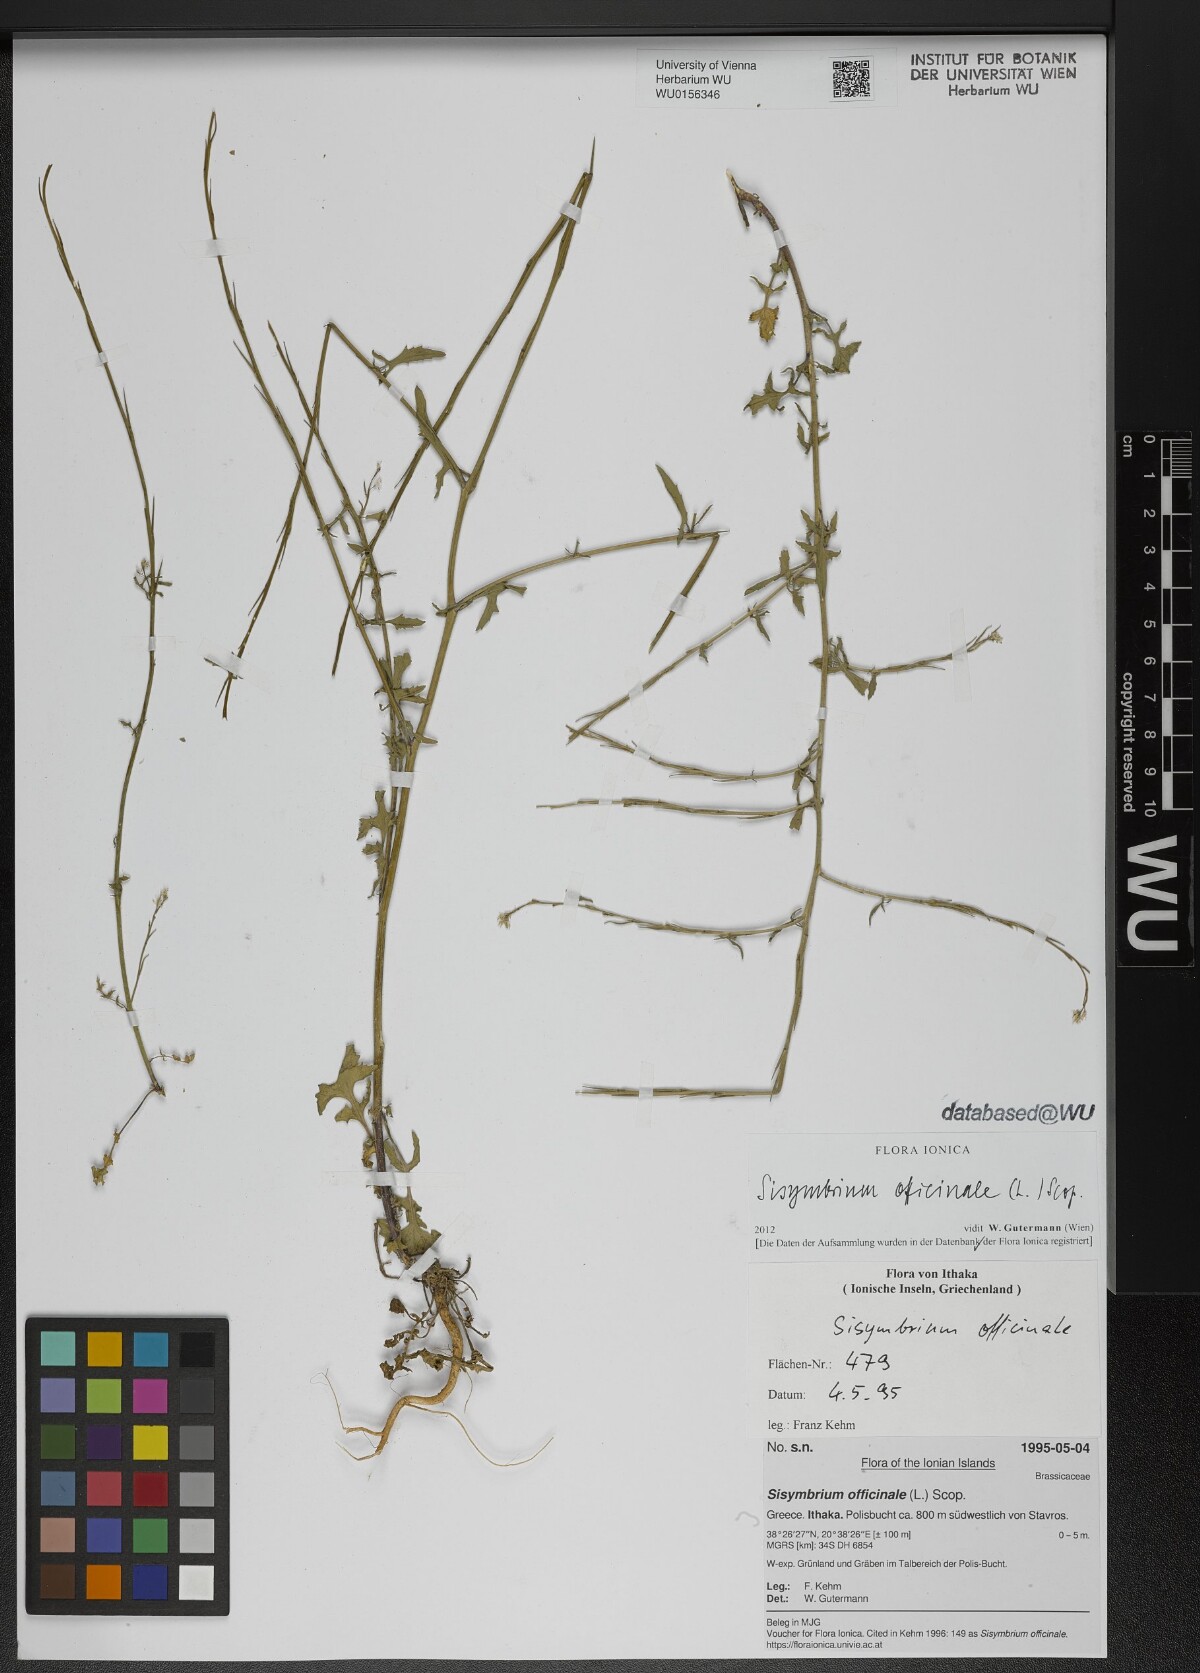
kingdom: Plantae
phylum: Tracheophyta
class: Magnoliopsida
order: Brassicales
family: Brassicaceae
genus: Sisymbrium
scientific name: Sisymbrium officinale
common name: Hedge mustard
